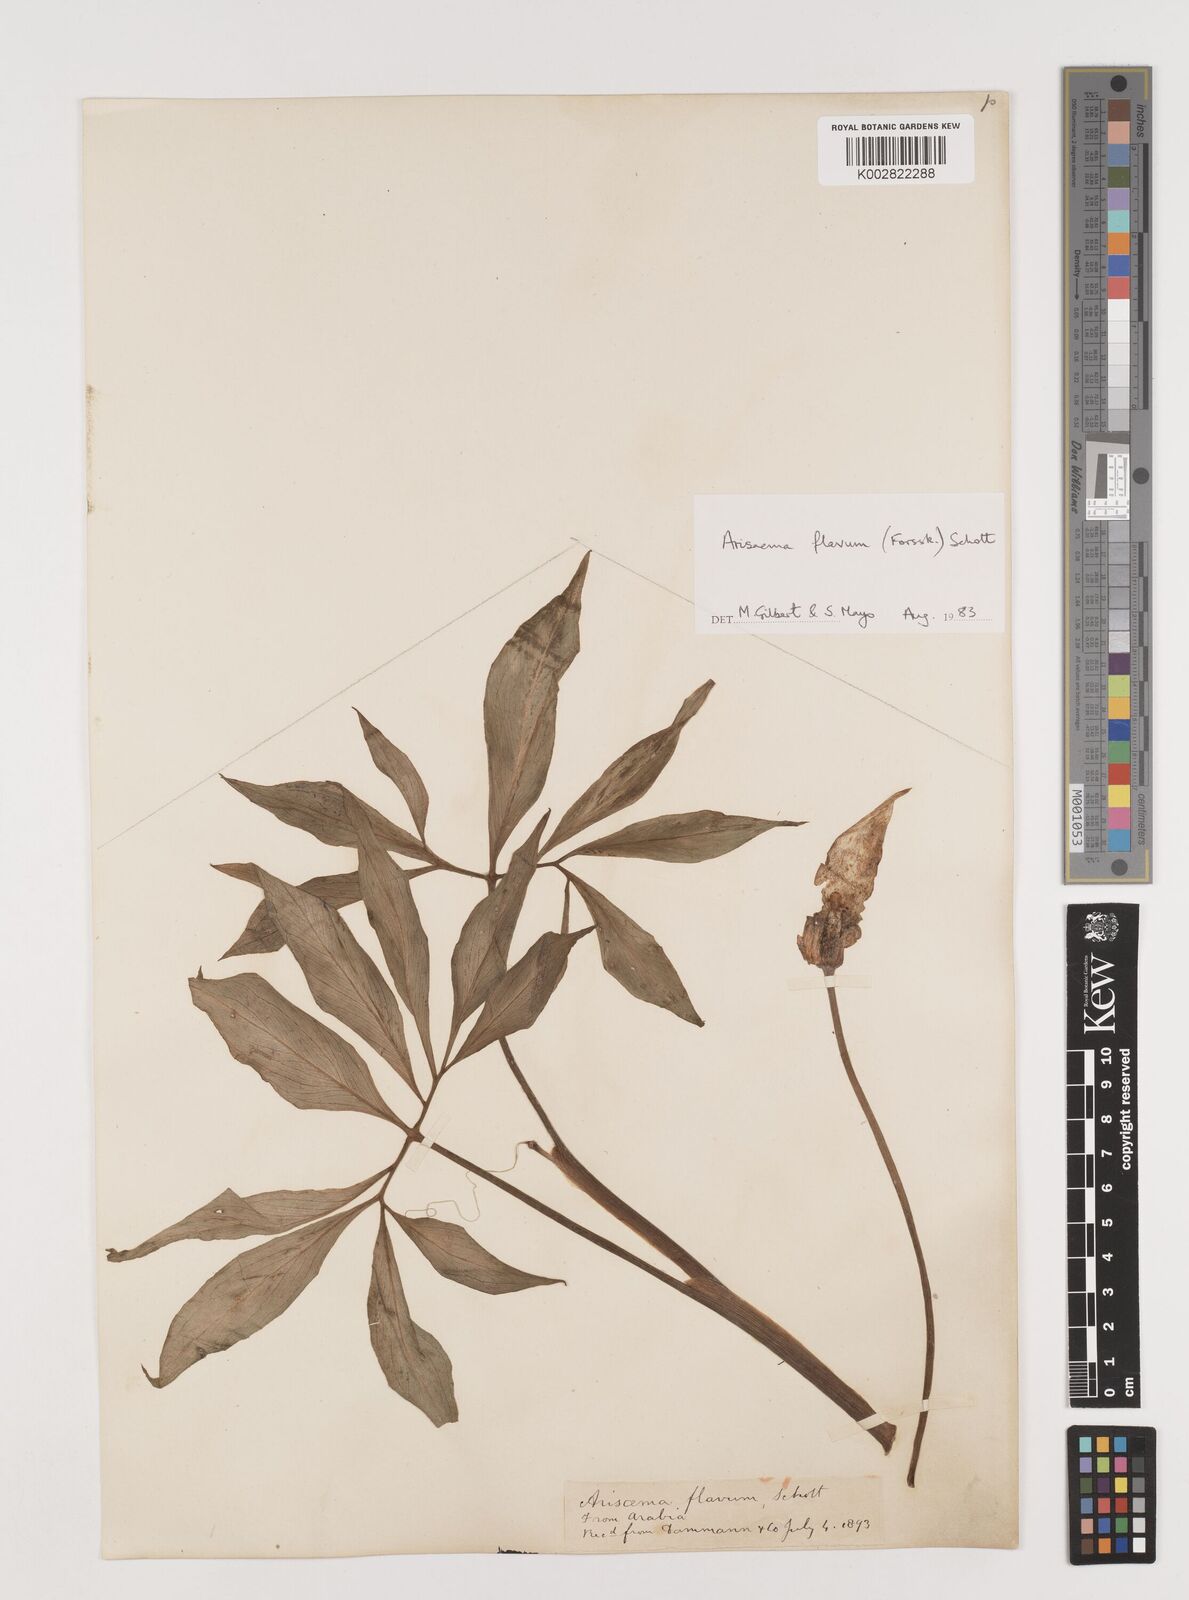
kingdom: Plantae
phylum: Tracheophyta
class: Liliopsida
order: Alismatales
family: Araceae
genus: Arisaema
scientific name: Arisaema flavum
